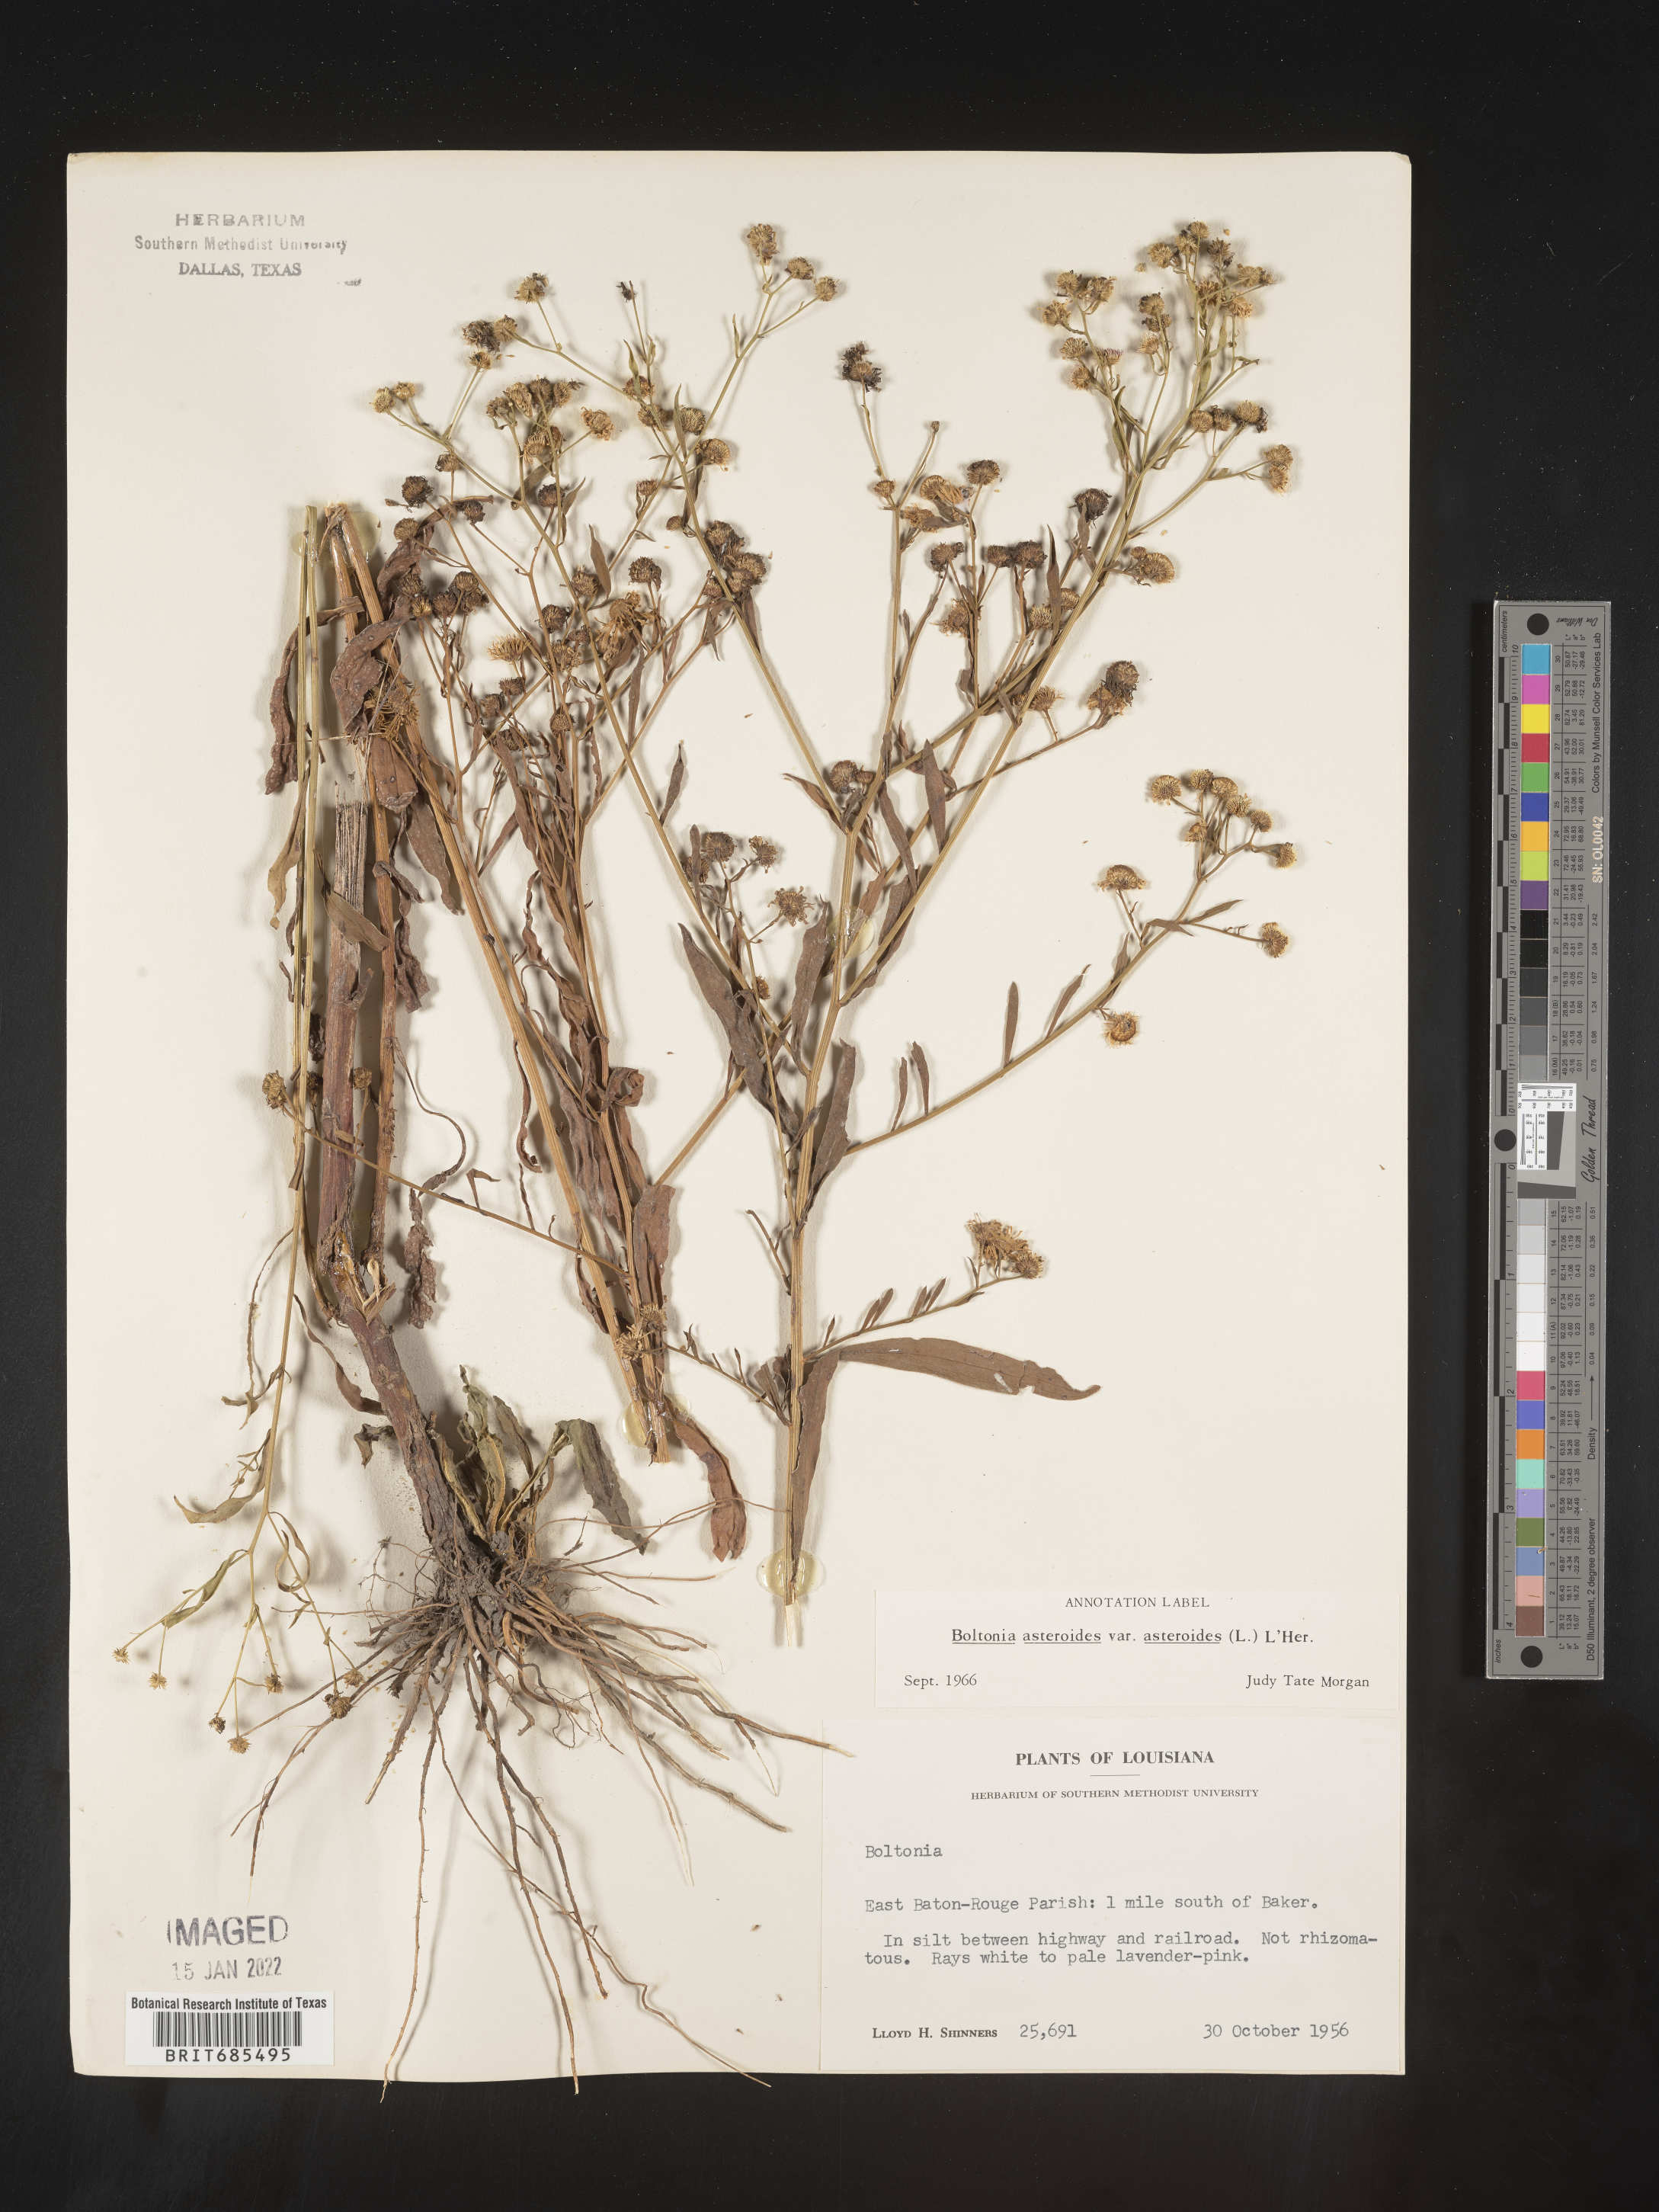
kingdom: Plantae
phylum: Tracheophyta
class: Magnoliopsida
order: Asterales
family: Asteraceae
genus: Boltonia
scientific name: Boltonia asteroides
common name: False chamomile
